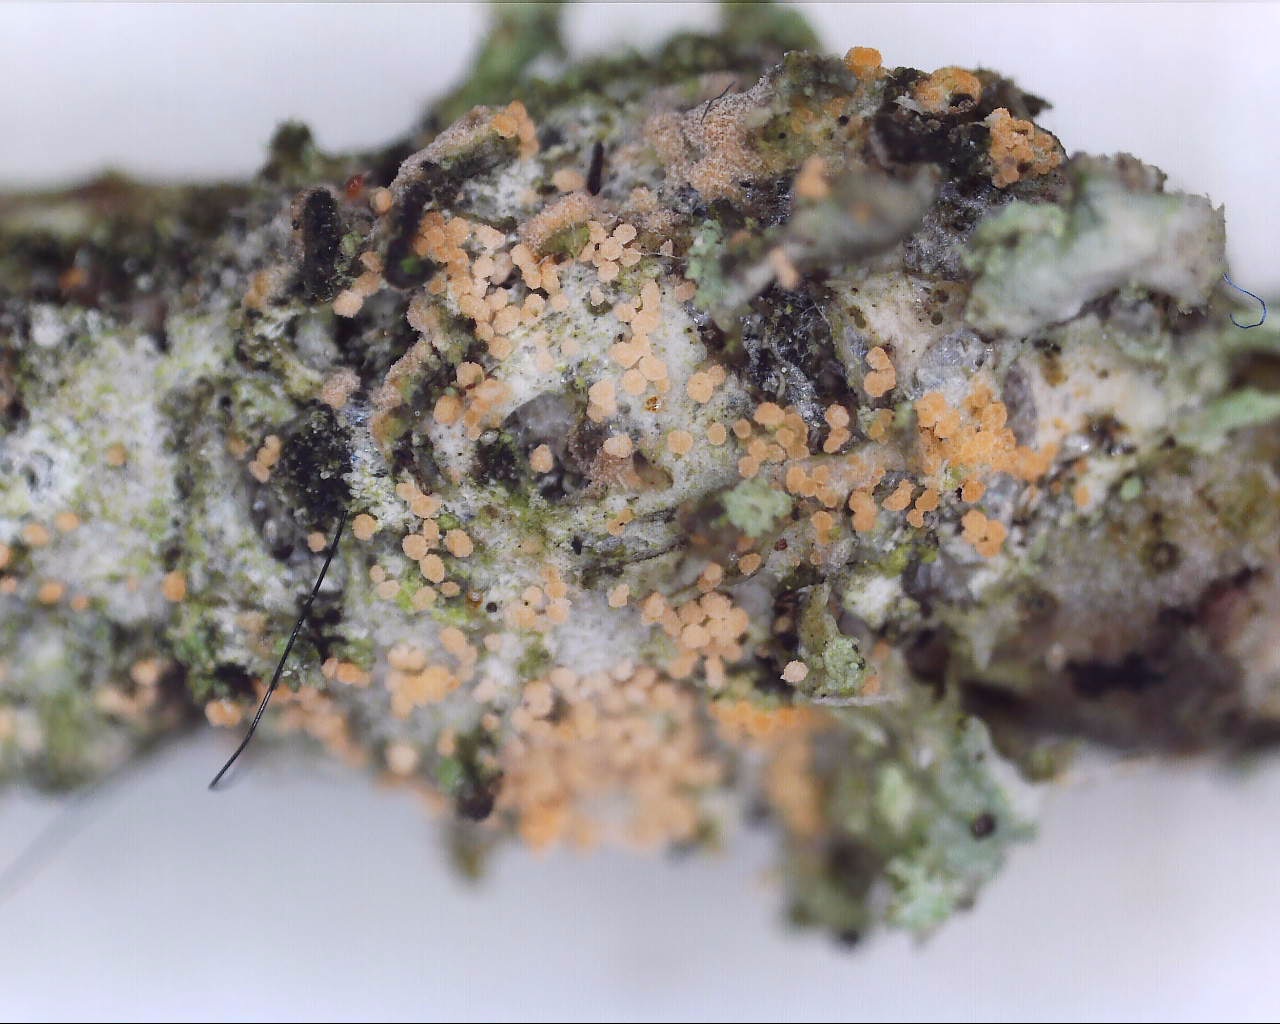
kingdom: Fungi
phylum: Basidiomycota
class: Agaricomycetes
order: Corticiales
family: Corticiaceae
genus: Erythricium
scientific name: Erythricium aurantiacum
